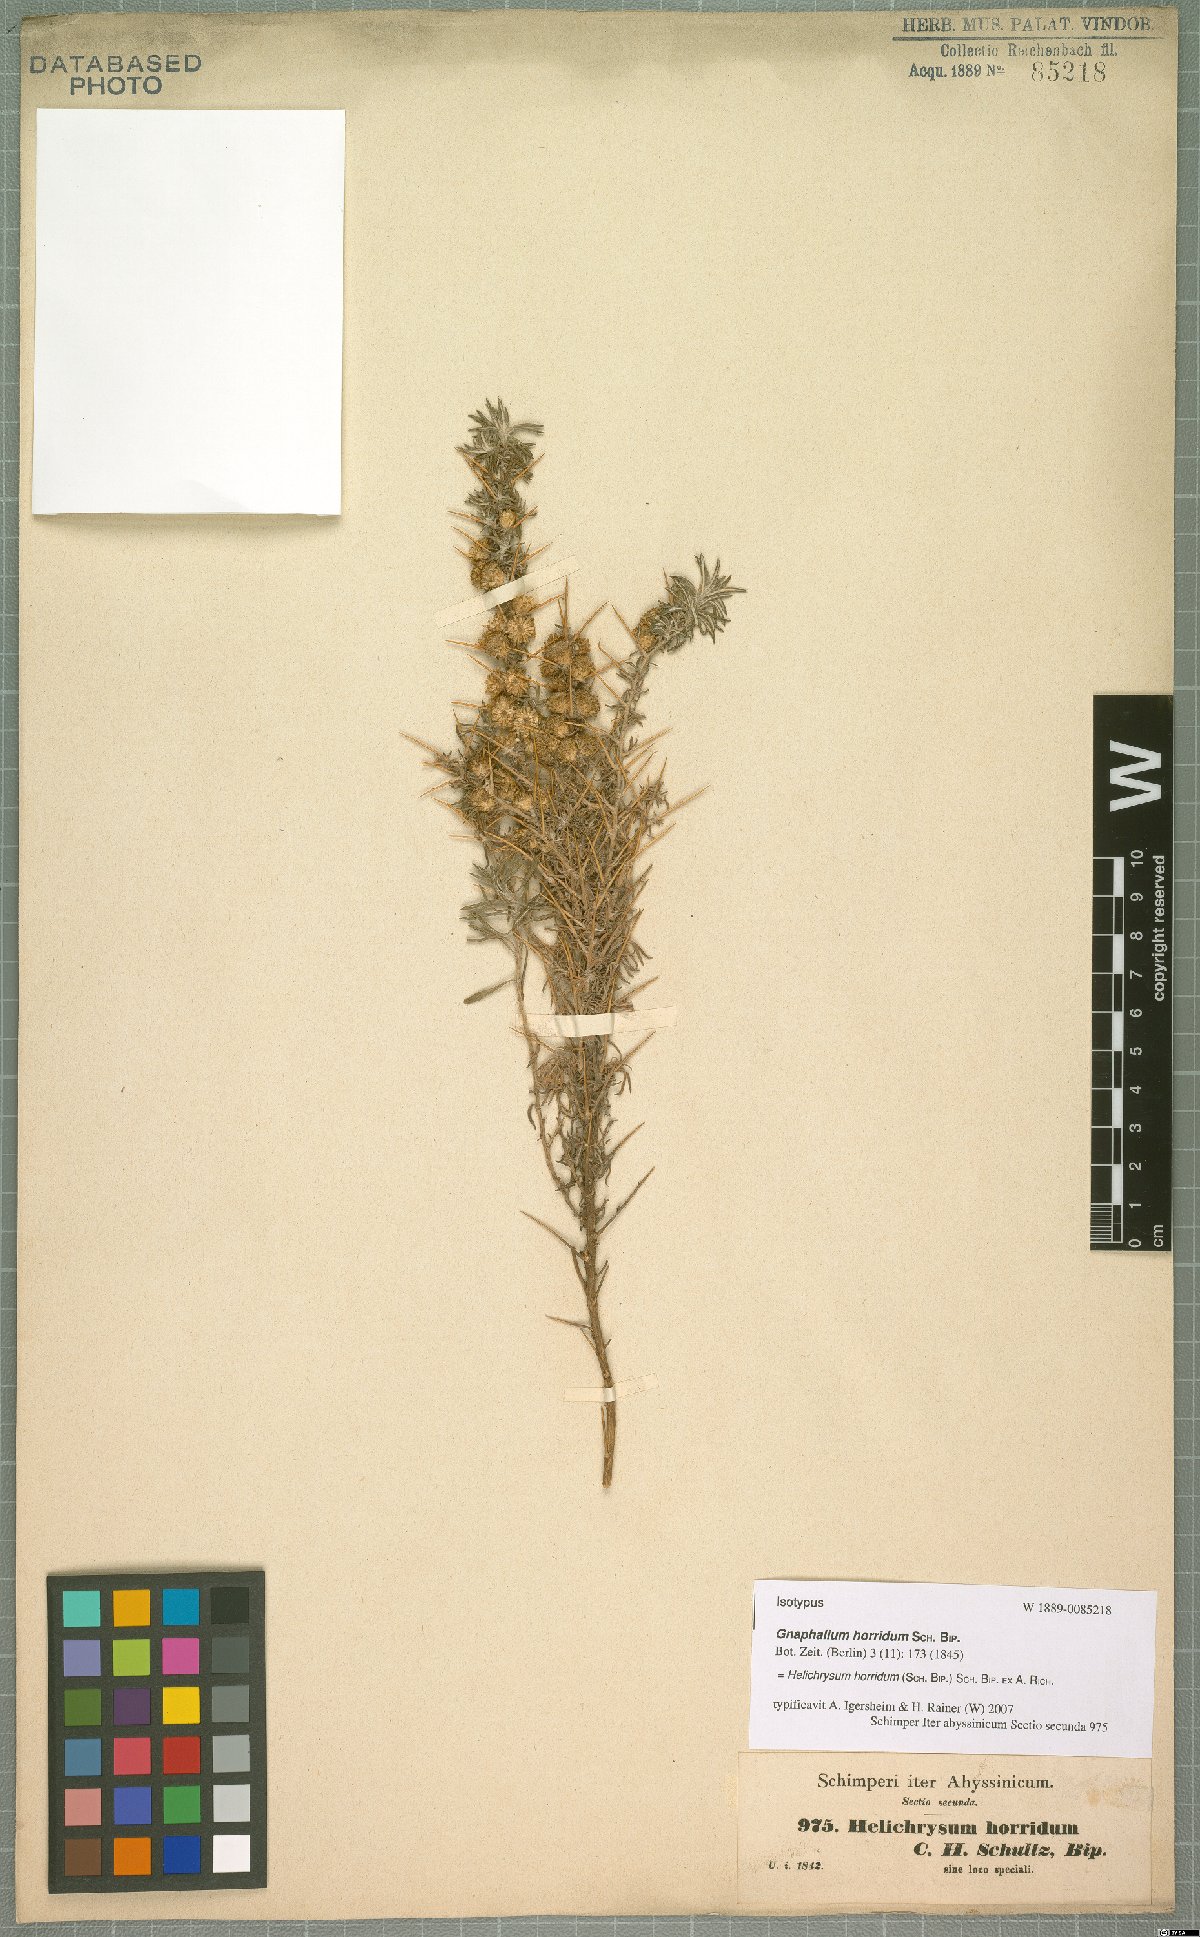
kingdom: Plantae
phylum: Tracheophyta
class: Magnoliopsida
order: Asterales
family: Asteraceae
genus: Helichrysum
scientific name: Helichrysum horridum
